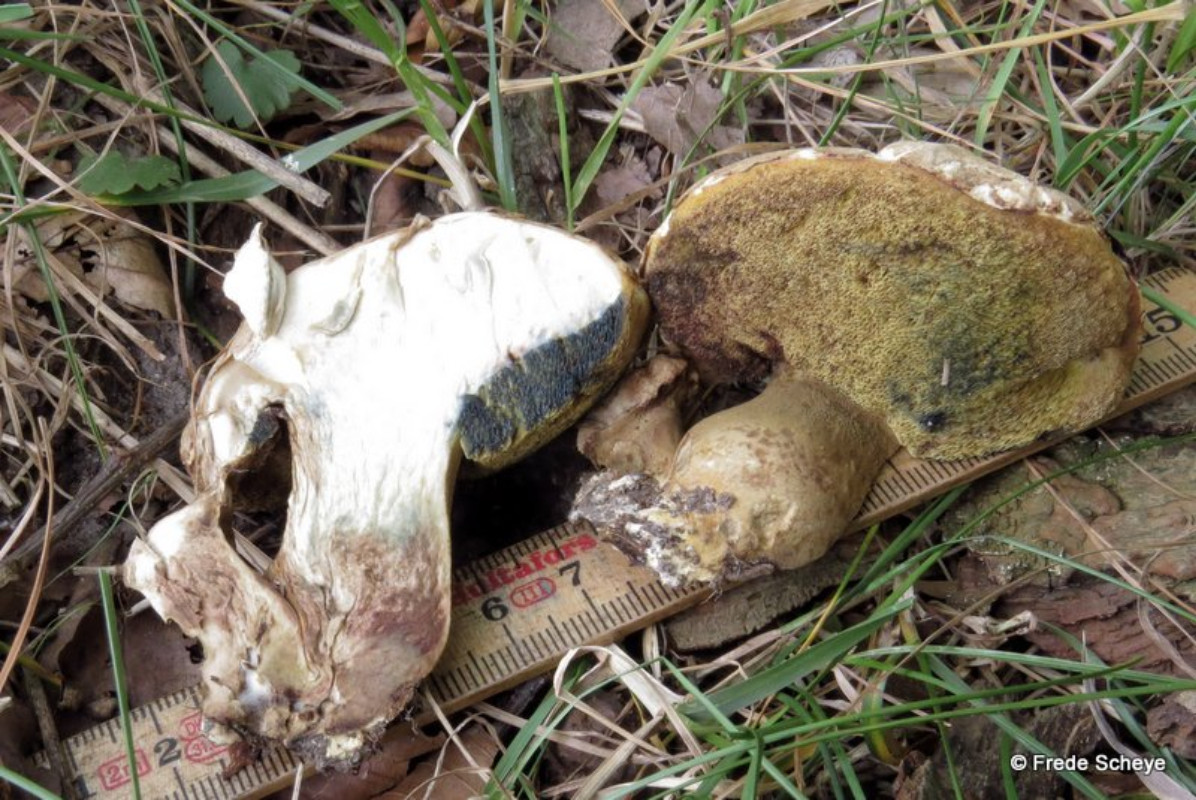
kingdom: Fungi
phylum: Basidiomycota
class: Agaricomycetes
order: Boletales
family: Boletaceae
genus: Caloboletus
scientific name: Caloboletus radicans
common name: rod-rørhat
